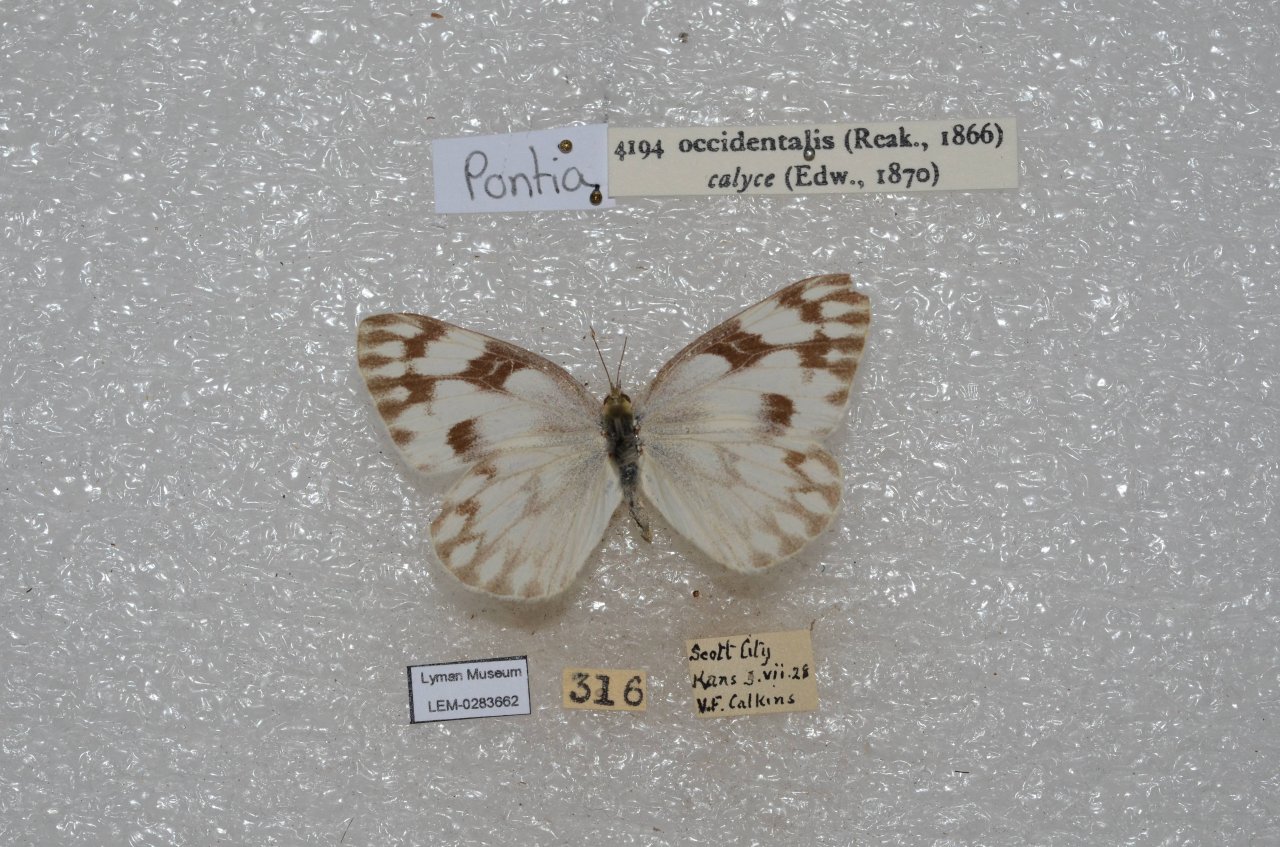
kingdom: Animalia
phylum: Arthropoda
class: Insecta
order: Lepidoptera
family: Pieridae
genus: Pontia
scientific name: Pontia occidentalis
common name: Western White
